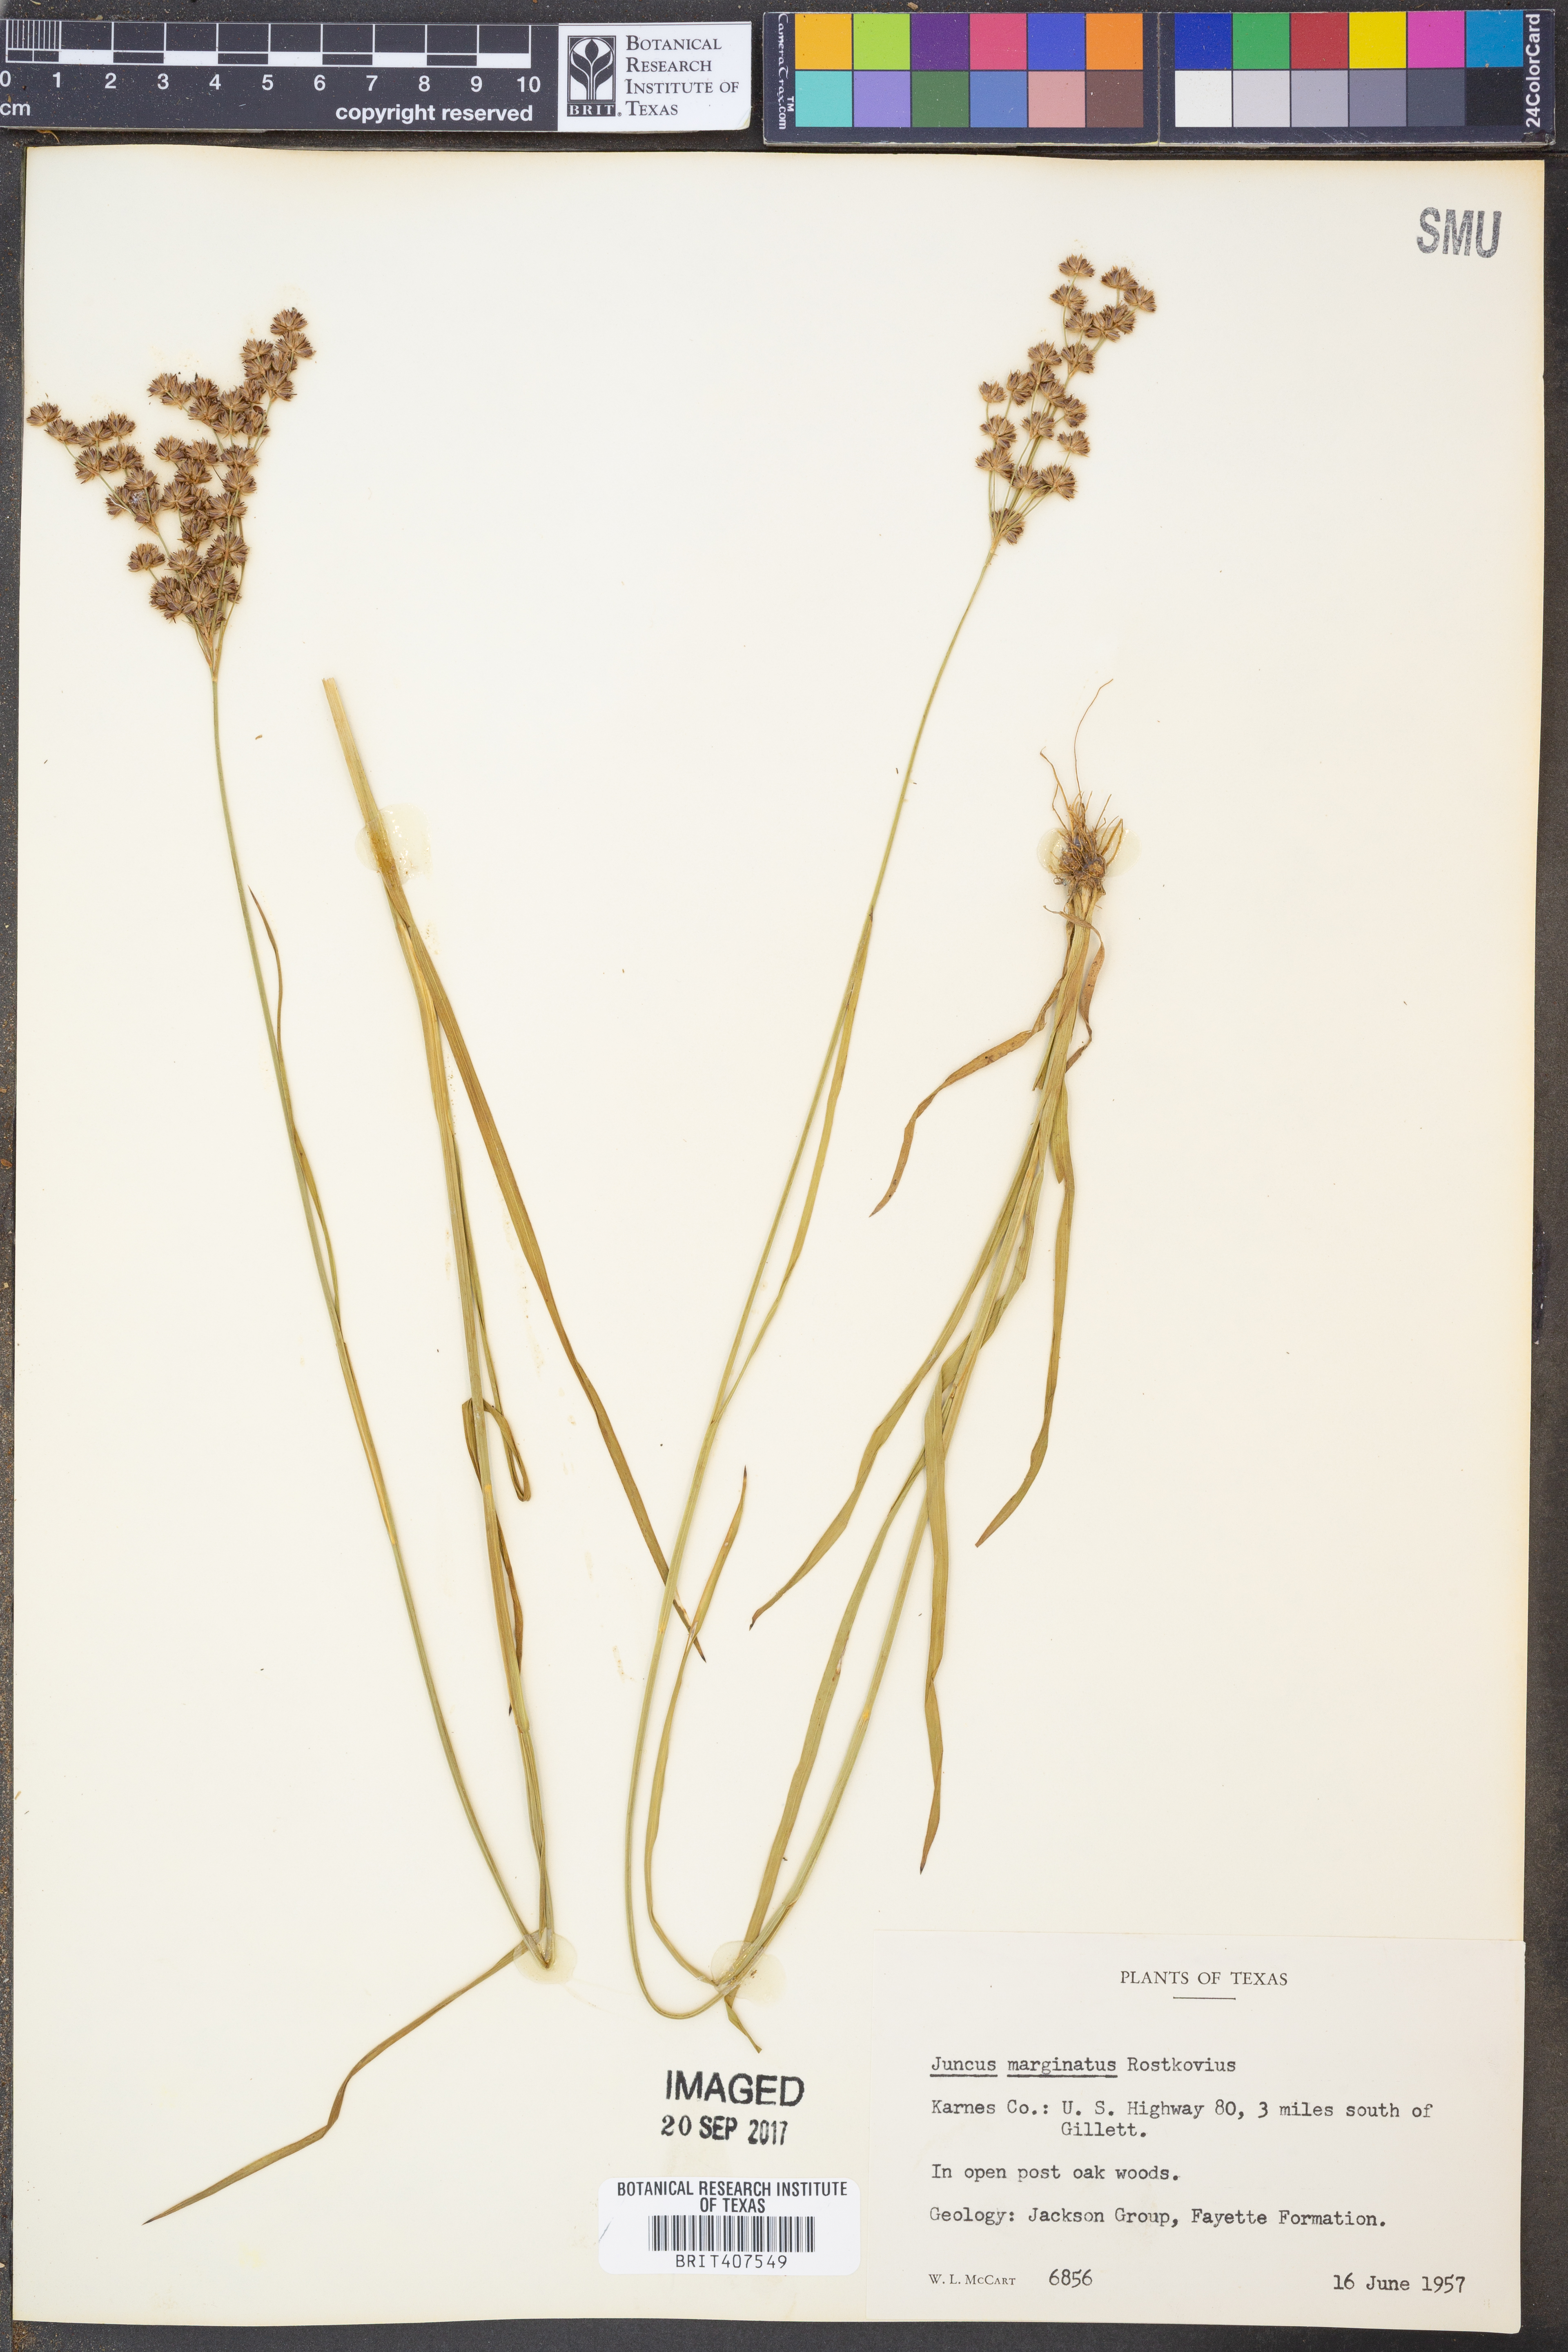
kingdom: Plantae
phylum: Tracheophyta
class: Liliopsida
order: Poales
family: Juncaceae
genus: Juncus
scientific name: Juncus marginatus
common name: Grass-leaf rush
